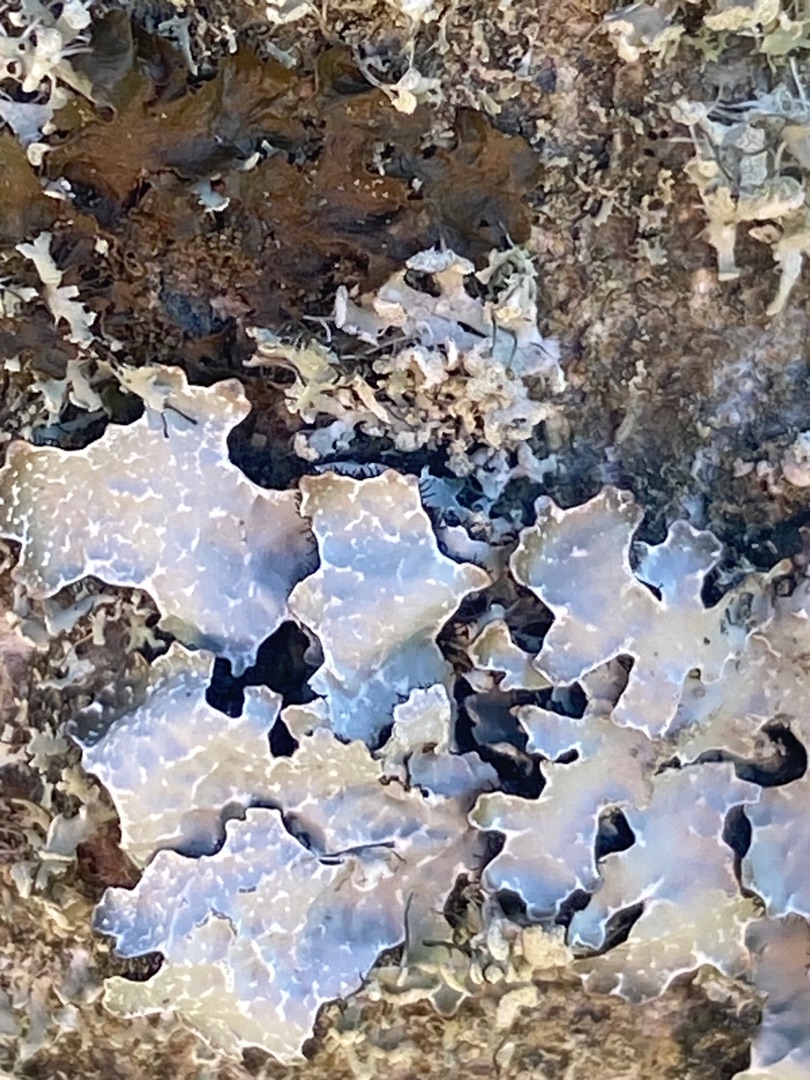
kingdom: Fungi
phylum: Ascomycota
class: Lecanoromycetes
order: Lecanorales
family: Parmeliaceae
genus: Parmelia
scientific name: Parmelia sulcata
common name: Rynket skållav
